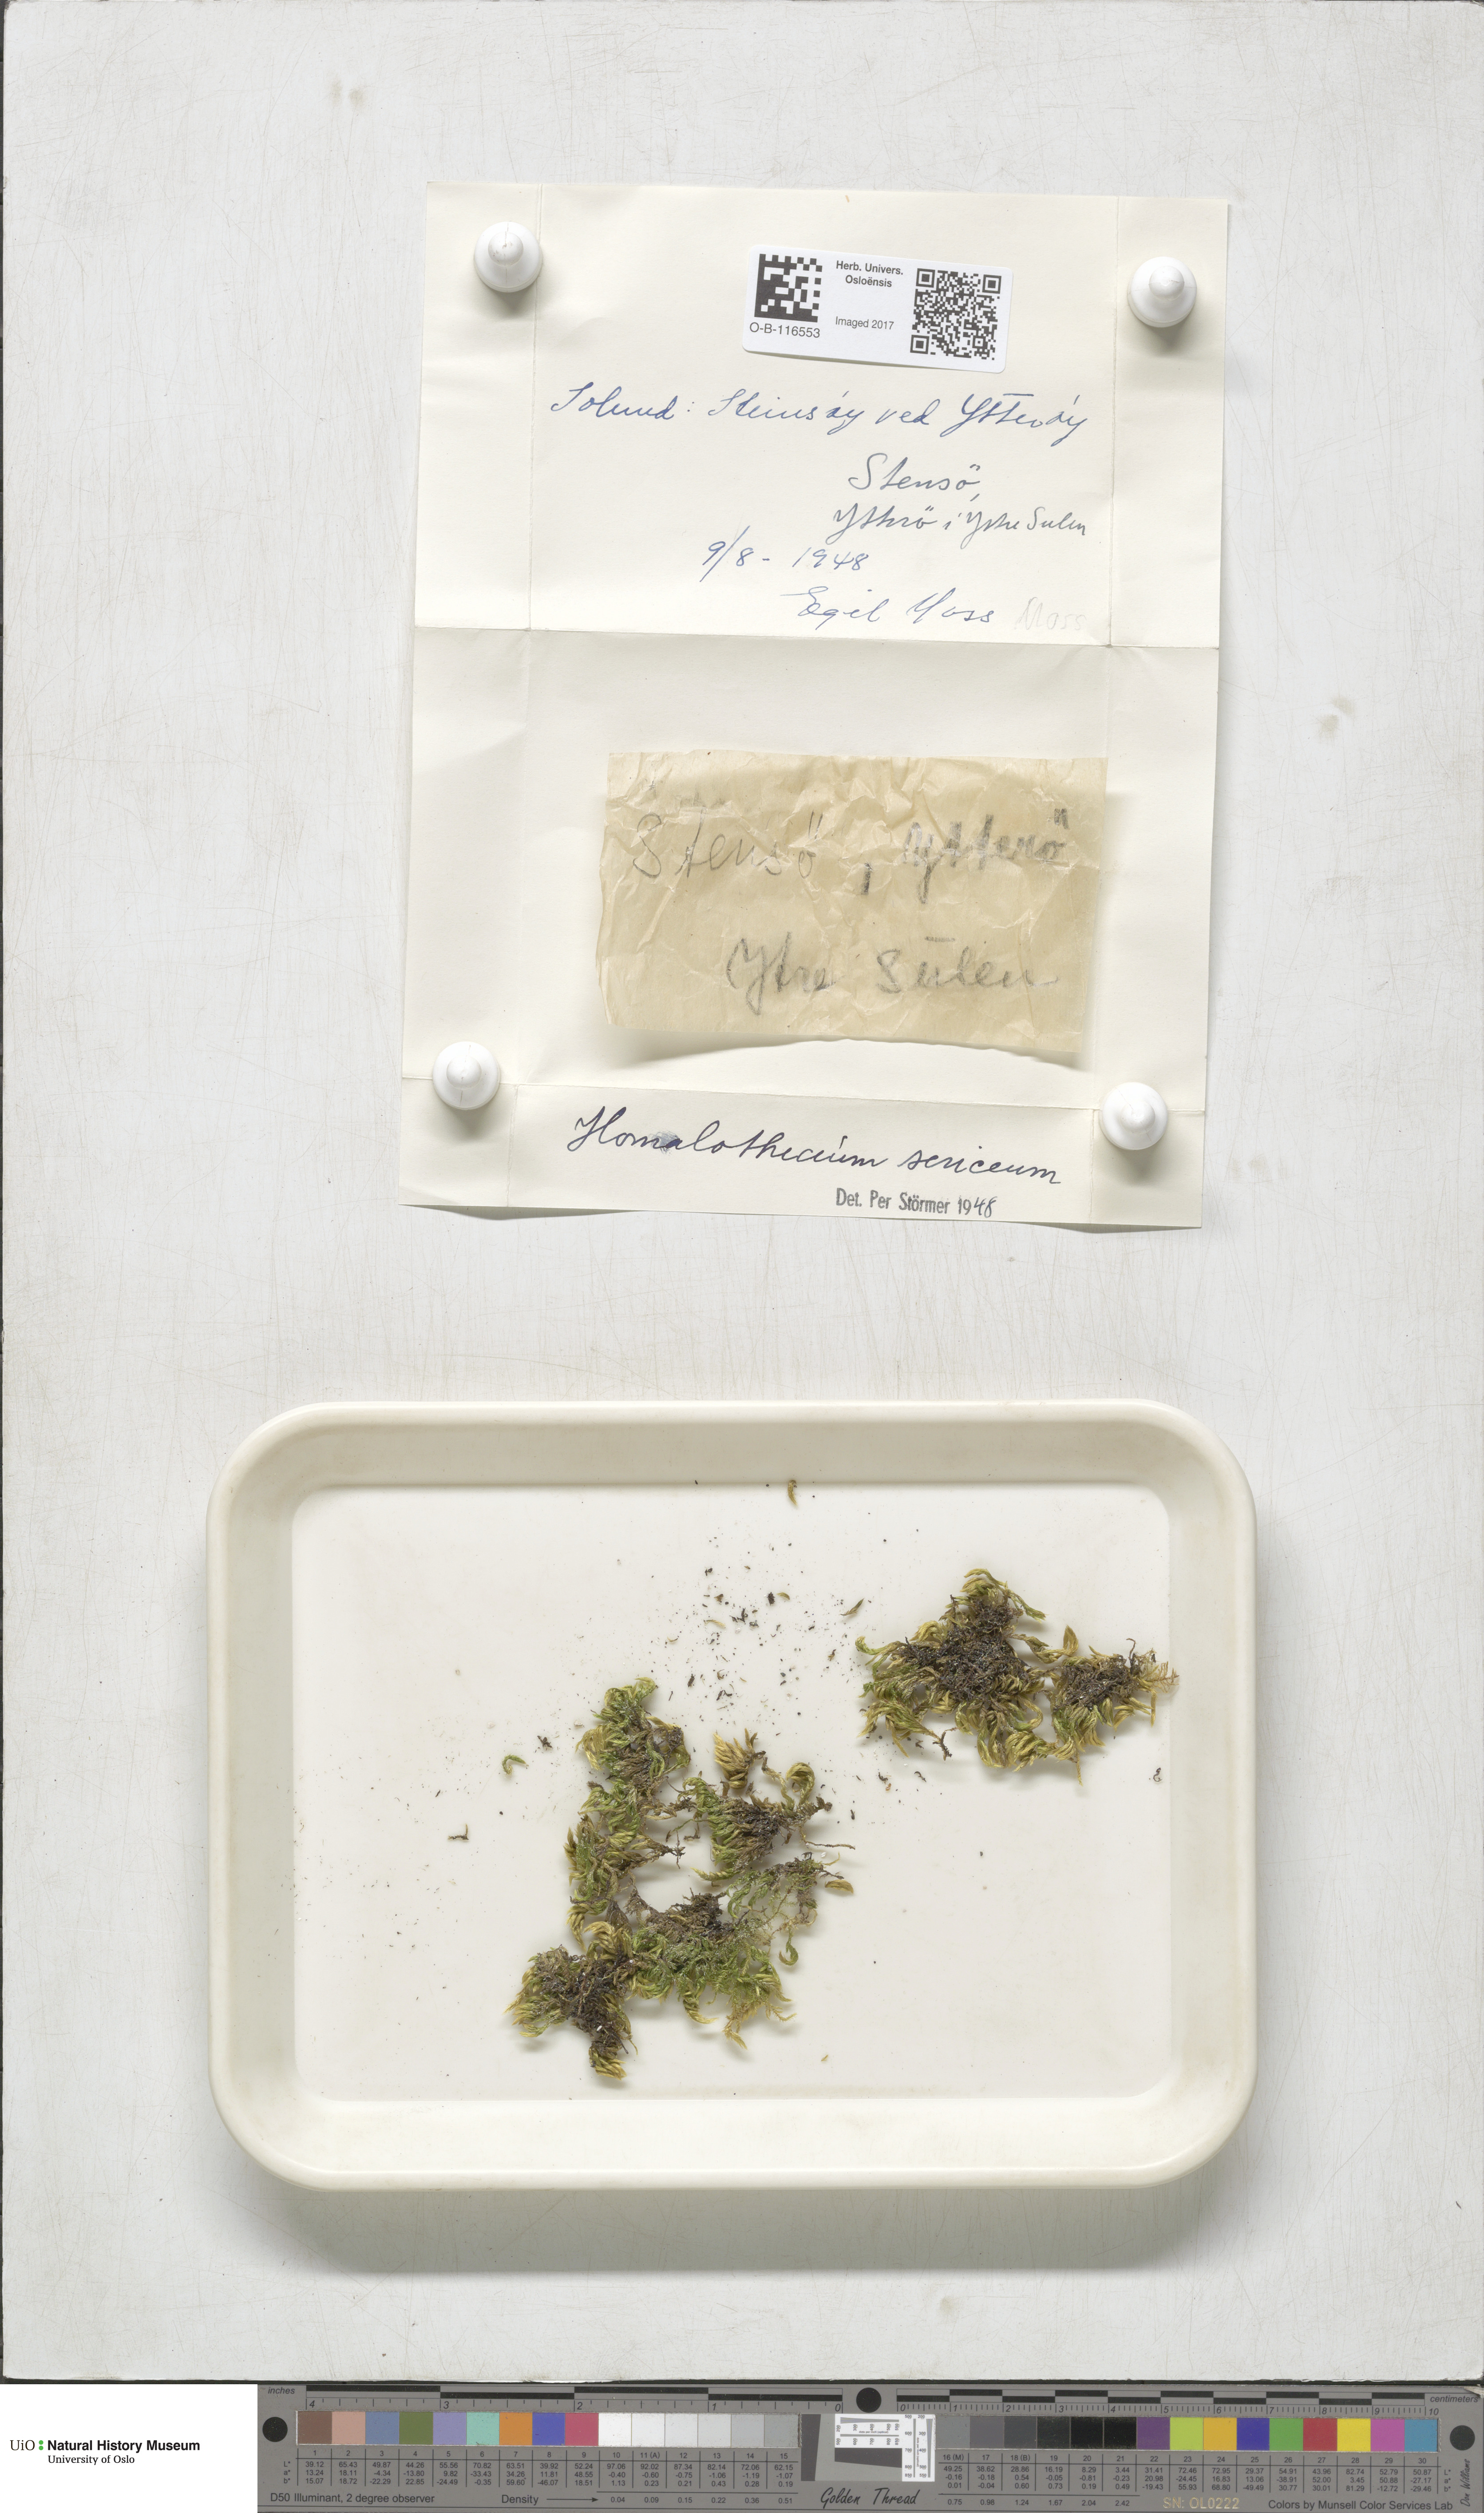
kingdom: Plantae
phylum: Bryophyta
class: Bryopsida
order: Hypnales
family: Brachytheciaceae
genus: Homalothecium
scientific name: Homalothecium sericeum
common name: Silky wall feather-moss
